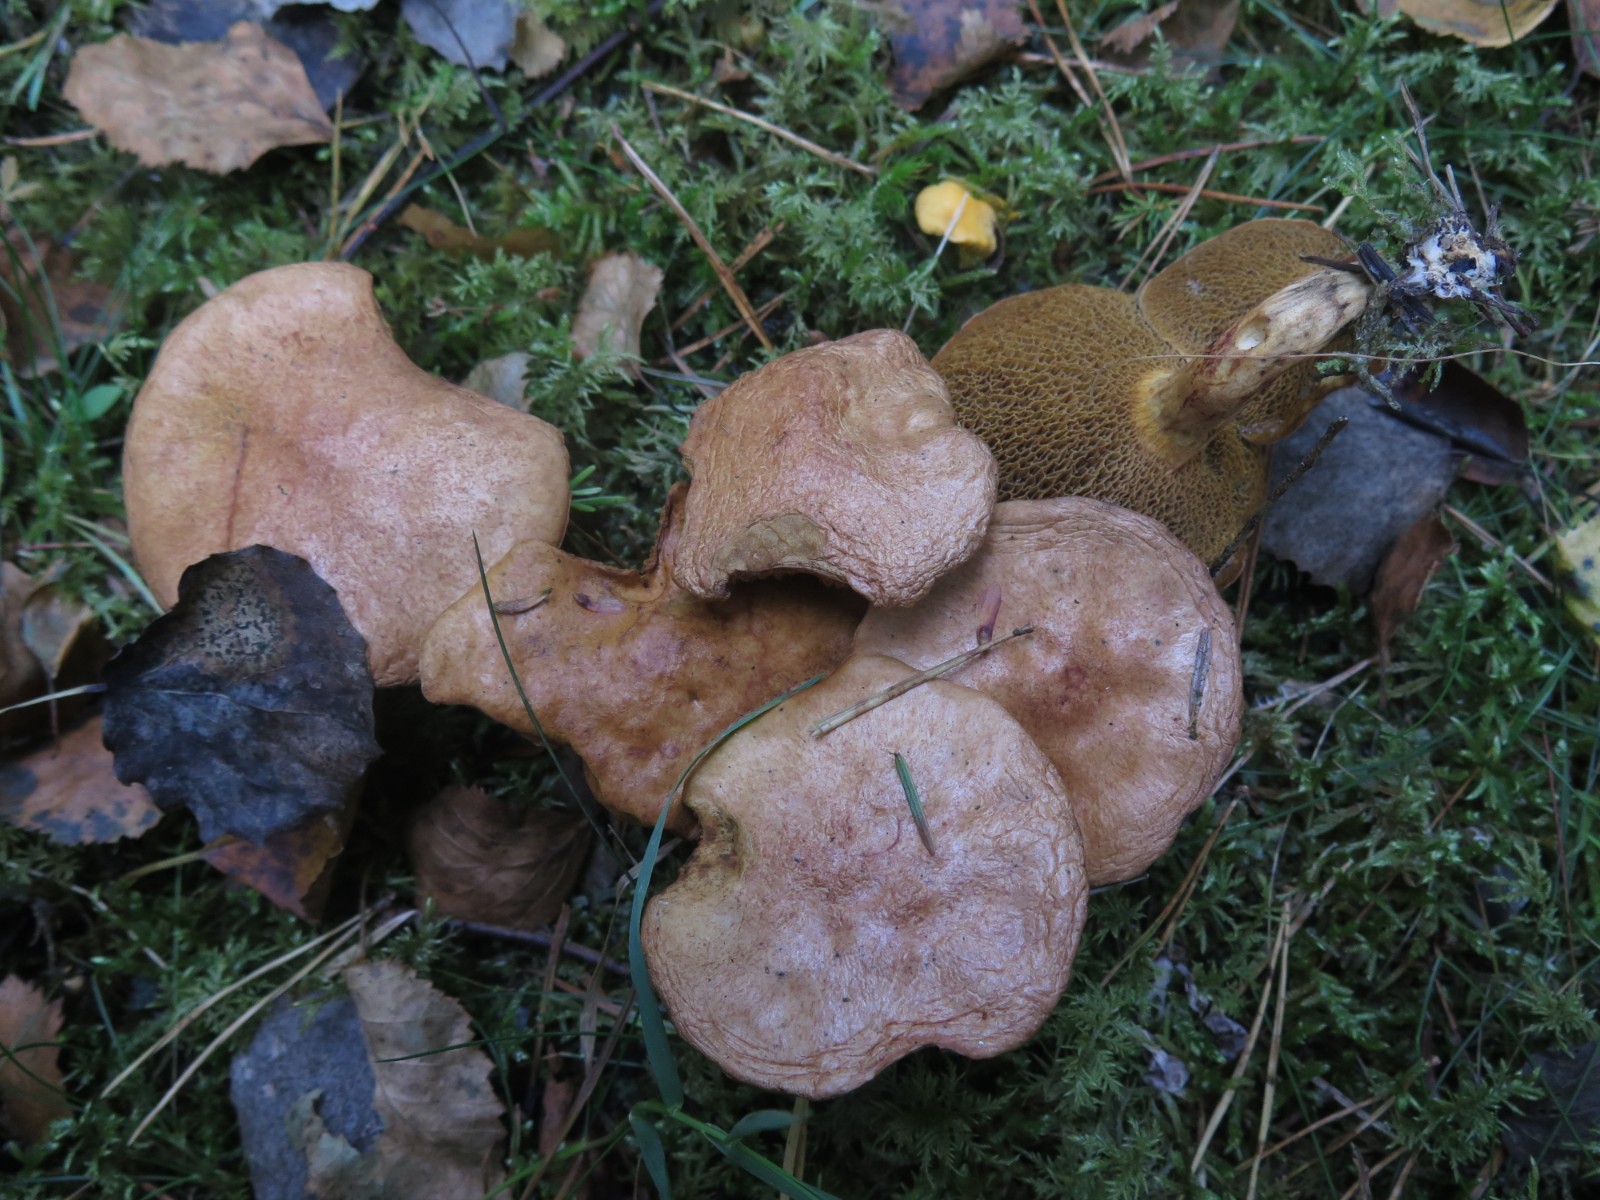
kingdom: Fungi
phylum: Basidiomycota
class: Agaricomycetes
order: Boletales
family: Suillaceae
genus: Suillus
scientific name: Suillus bovinus
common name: grovporet slimrørhat
